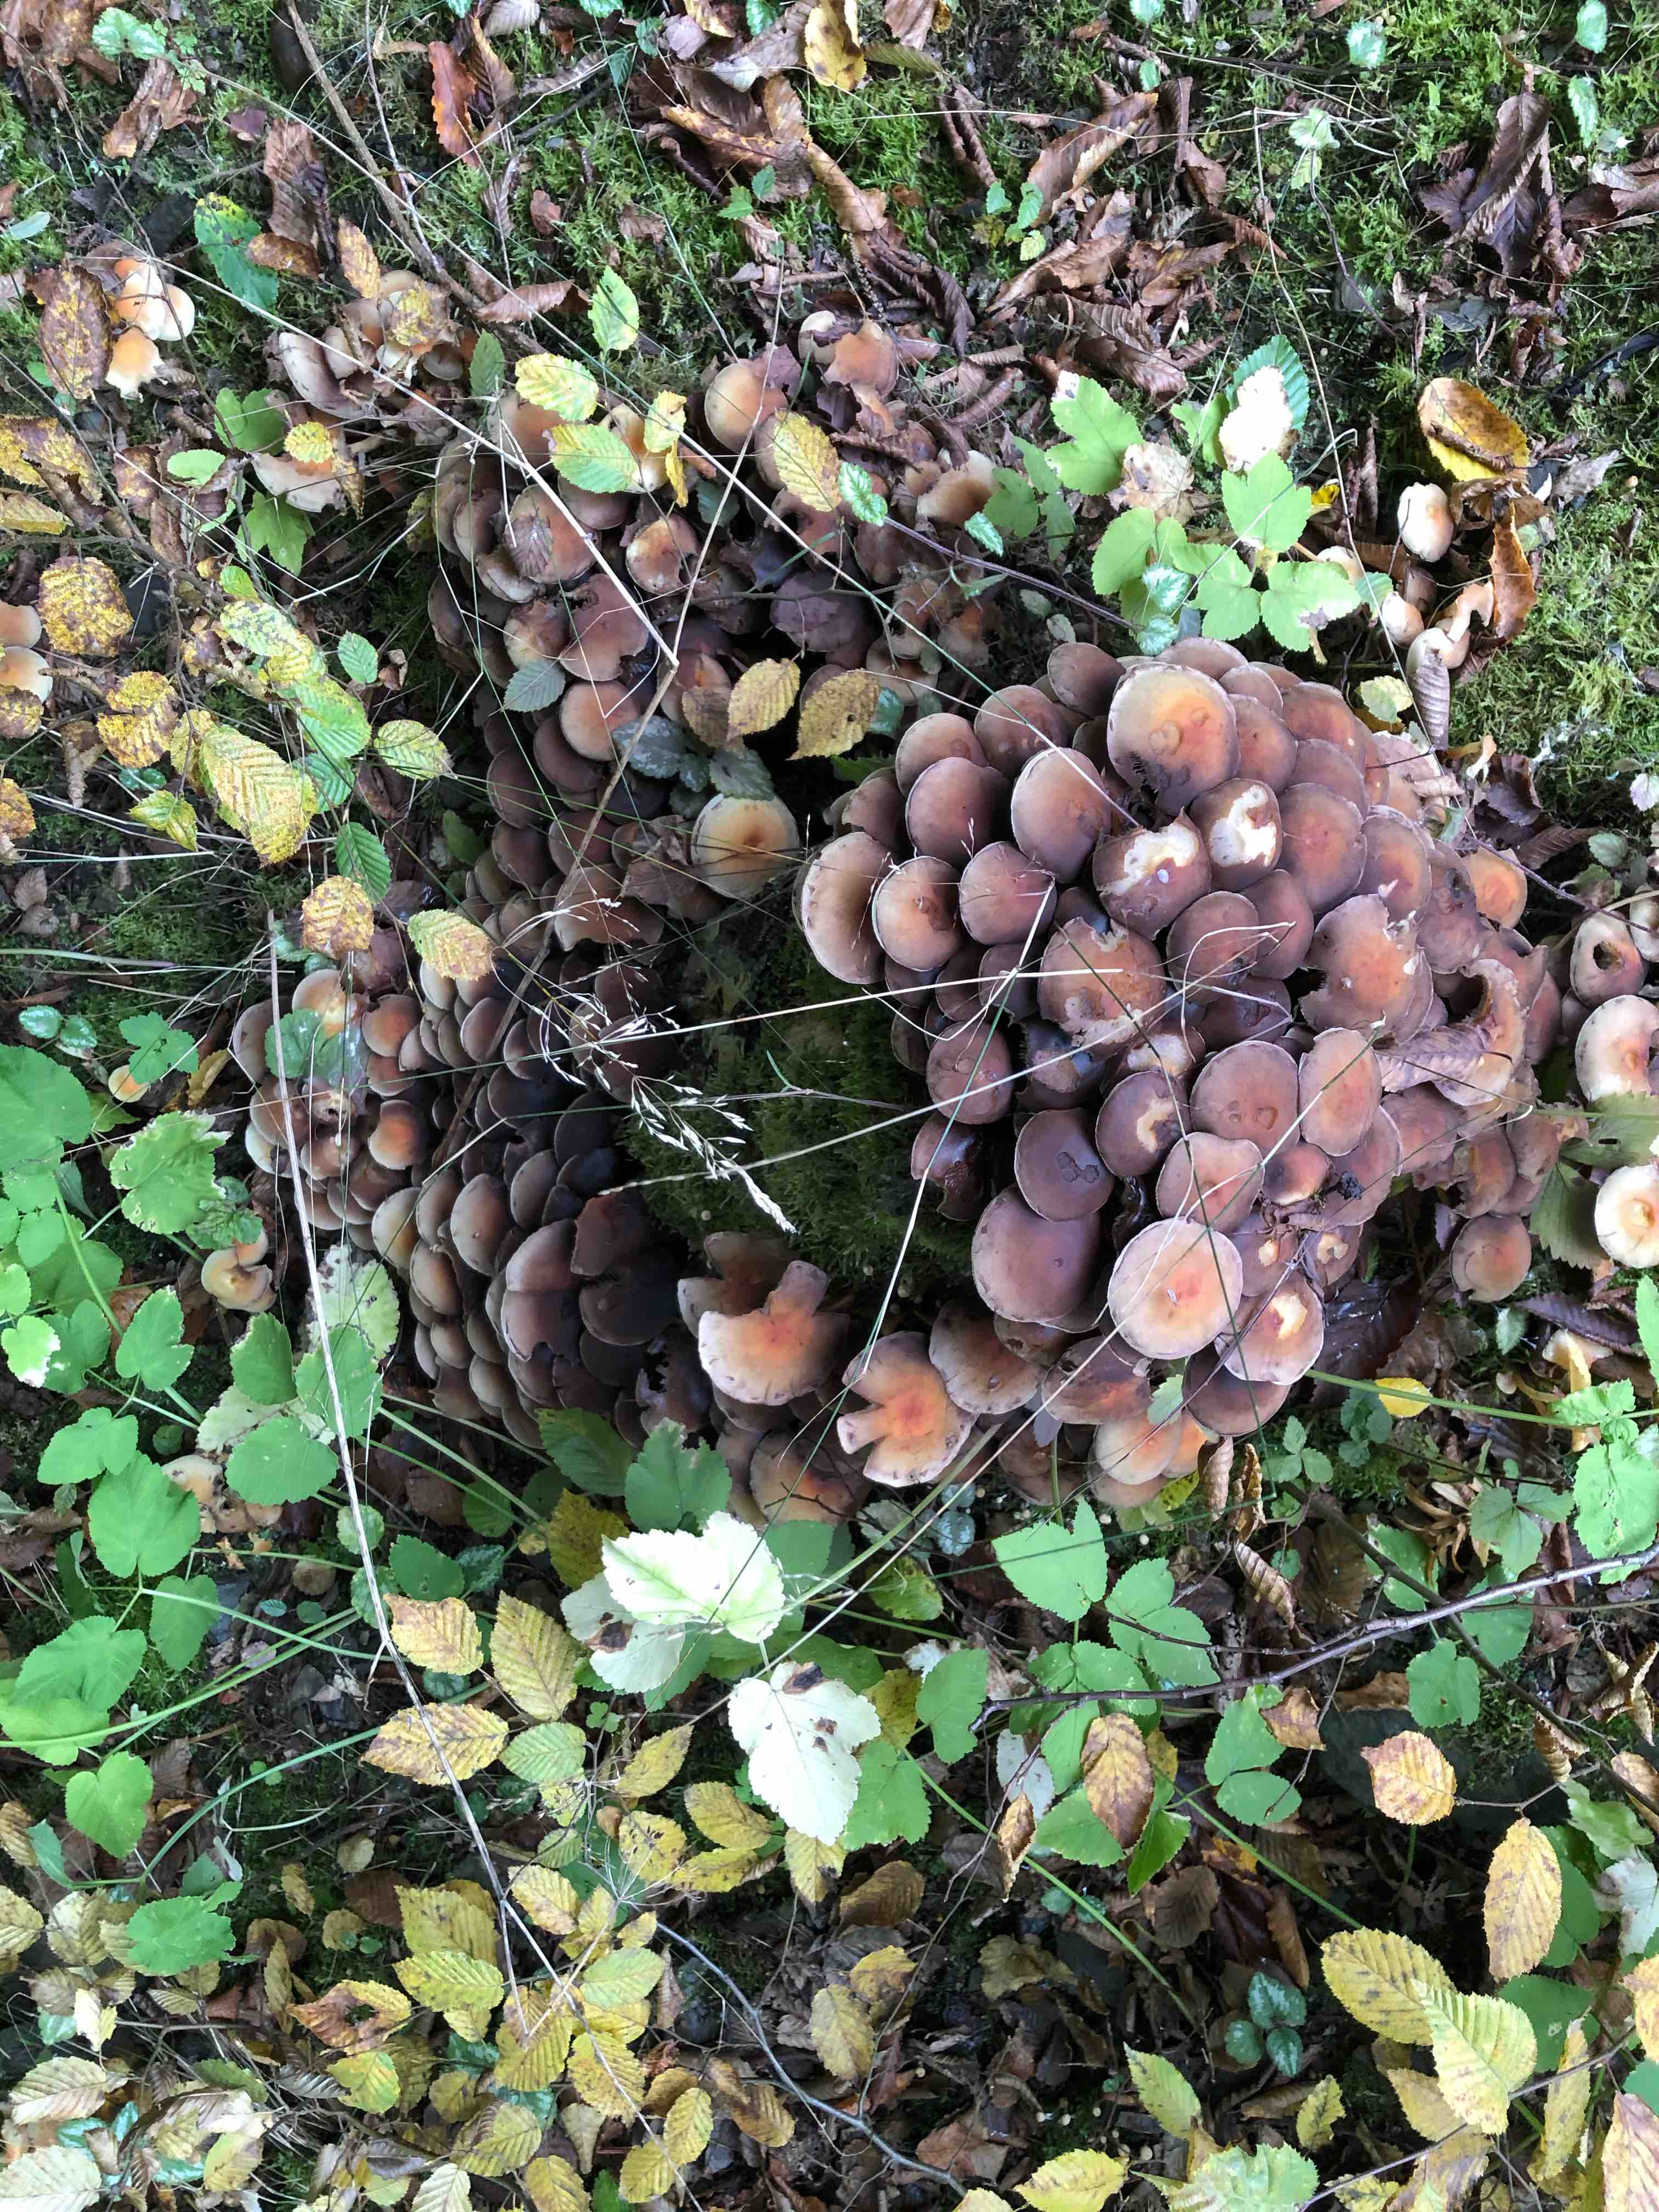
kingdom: Fungi
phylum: Basidiomycota
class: Agaricomycetes
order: Agaricales
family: Strophariaceae
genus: Hypholoma
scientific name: Hypholoma fasciculare
